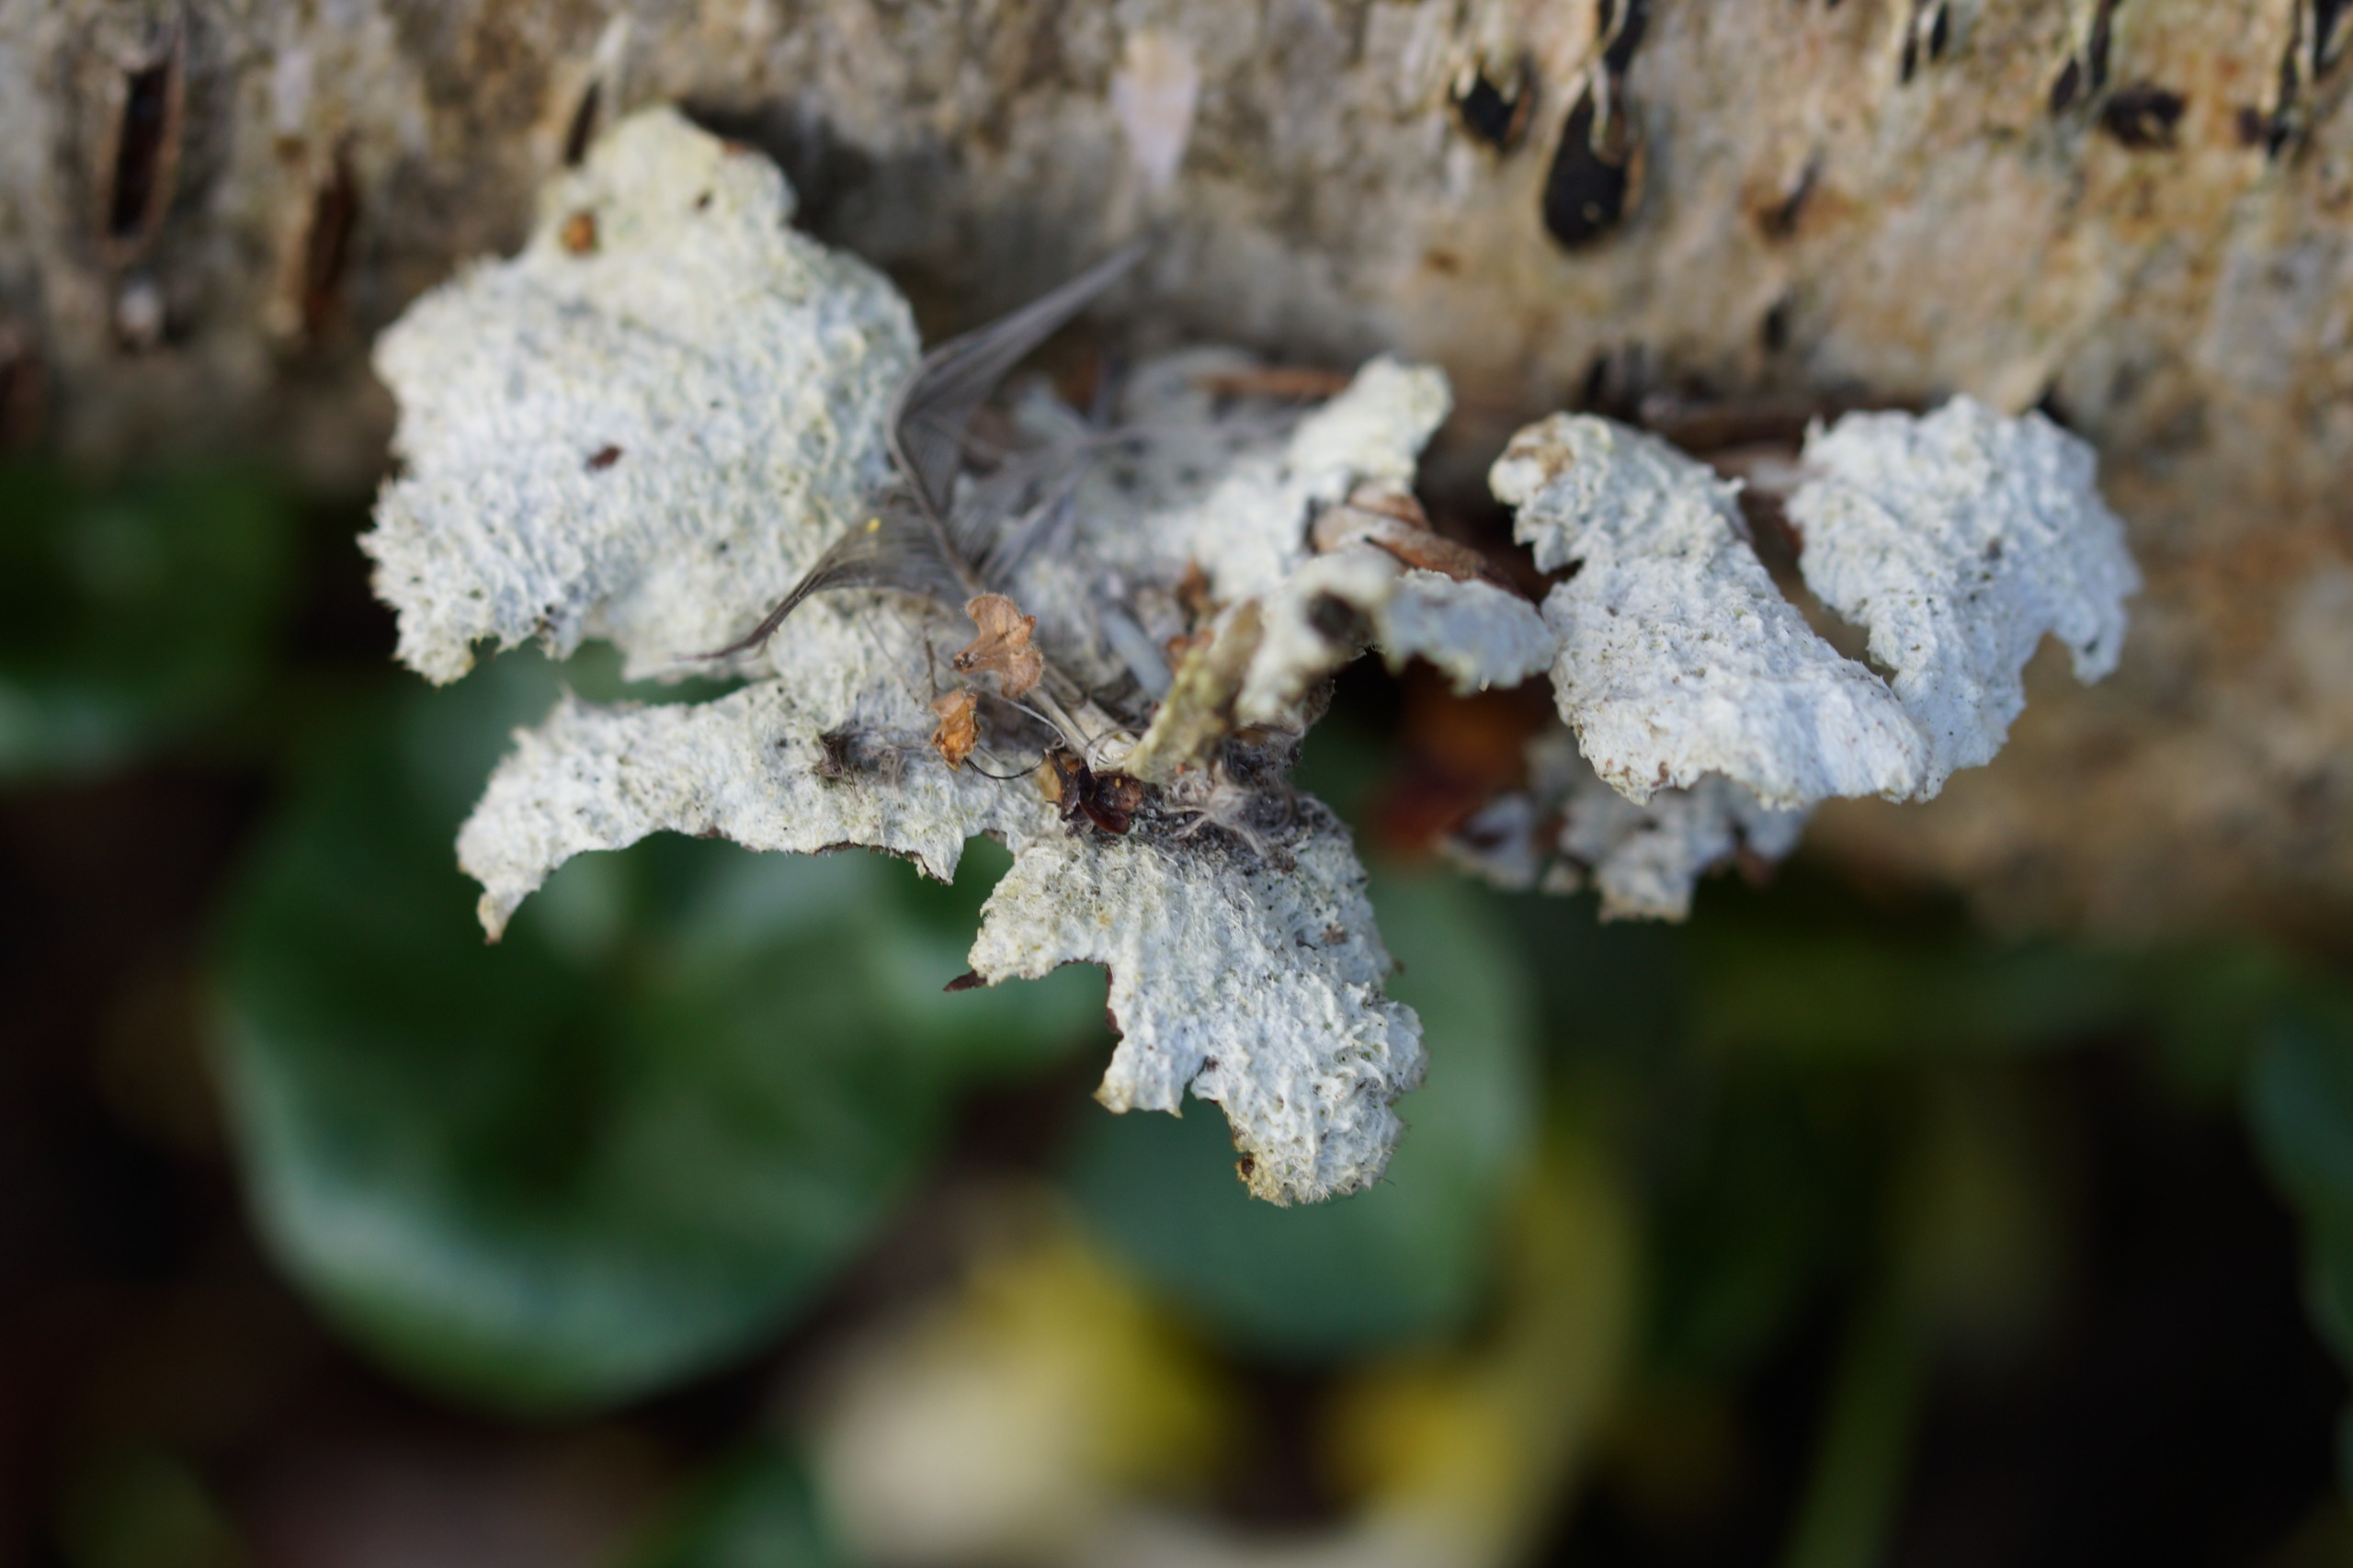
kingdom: Fungi
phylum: Basidiomycota
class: Agaricomycetes
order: Agaricales
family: Schizophyllaceae
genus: Schizophyllum
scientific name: Schizophyllum commune
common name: Kløvblad
